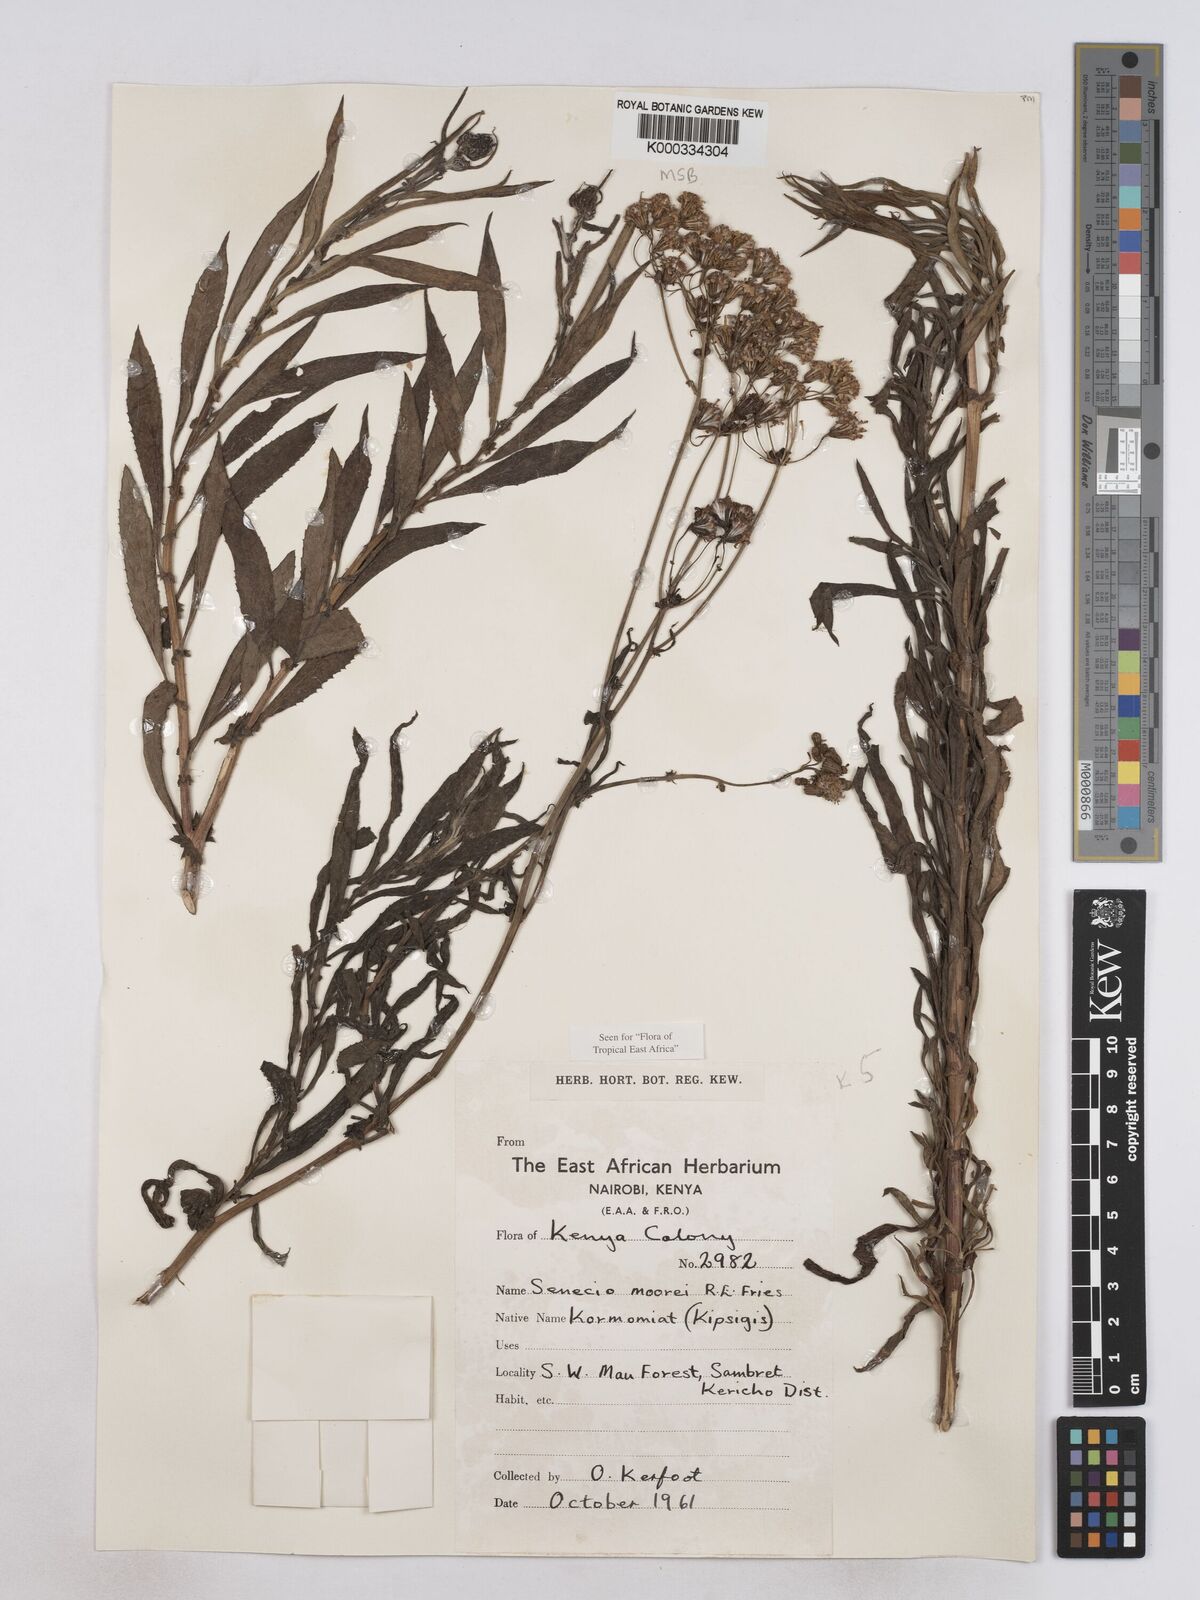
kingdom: Plantae
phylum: Tracheophyta
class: Magnoliopsida
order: Asterales
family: Asteraceae
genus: Senecio
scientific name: Senecio moorei
